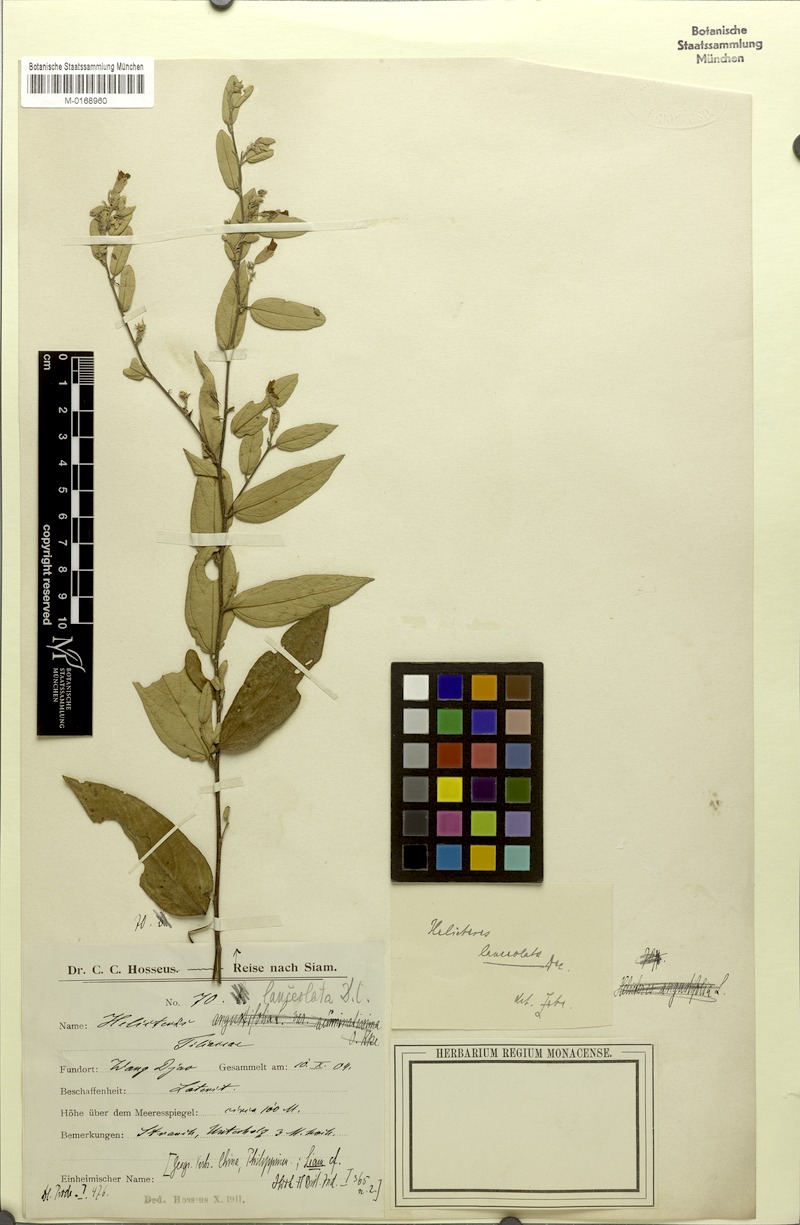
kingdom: Plantae
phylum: Tracheophyta
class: Magnoliopsida
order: Malvales
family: Malvaceae
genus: Helicteres
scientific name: Helicteres lanceolata
